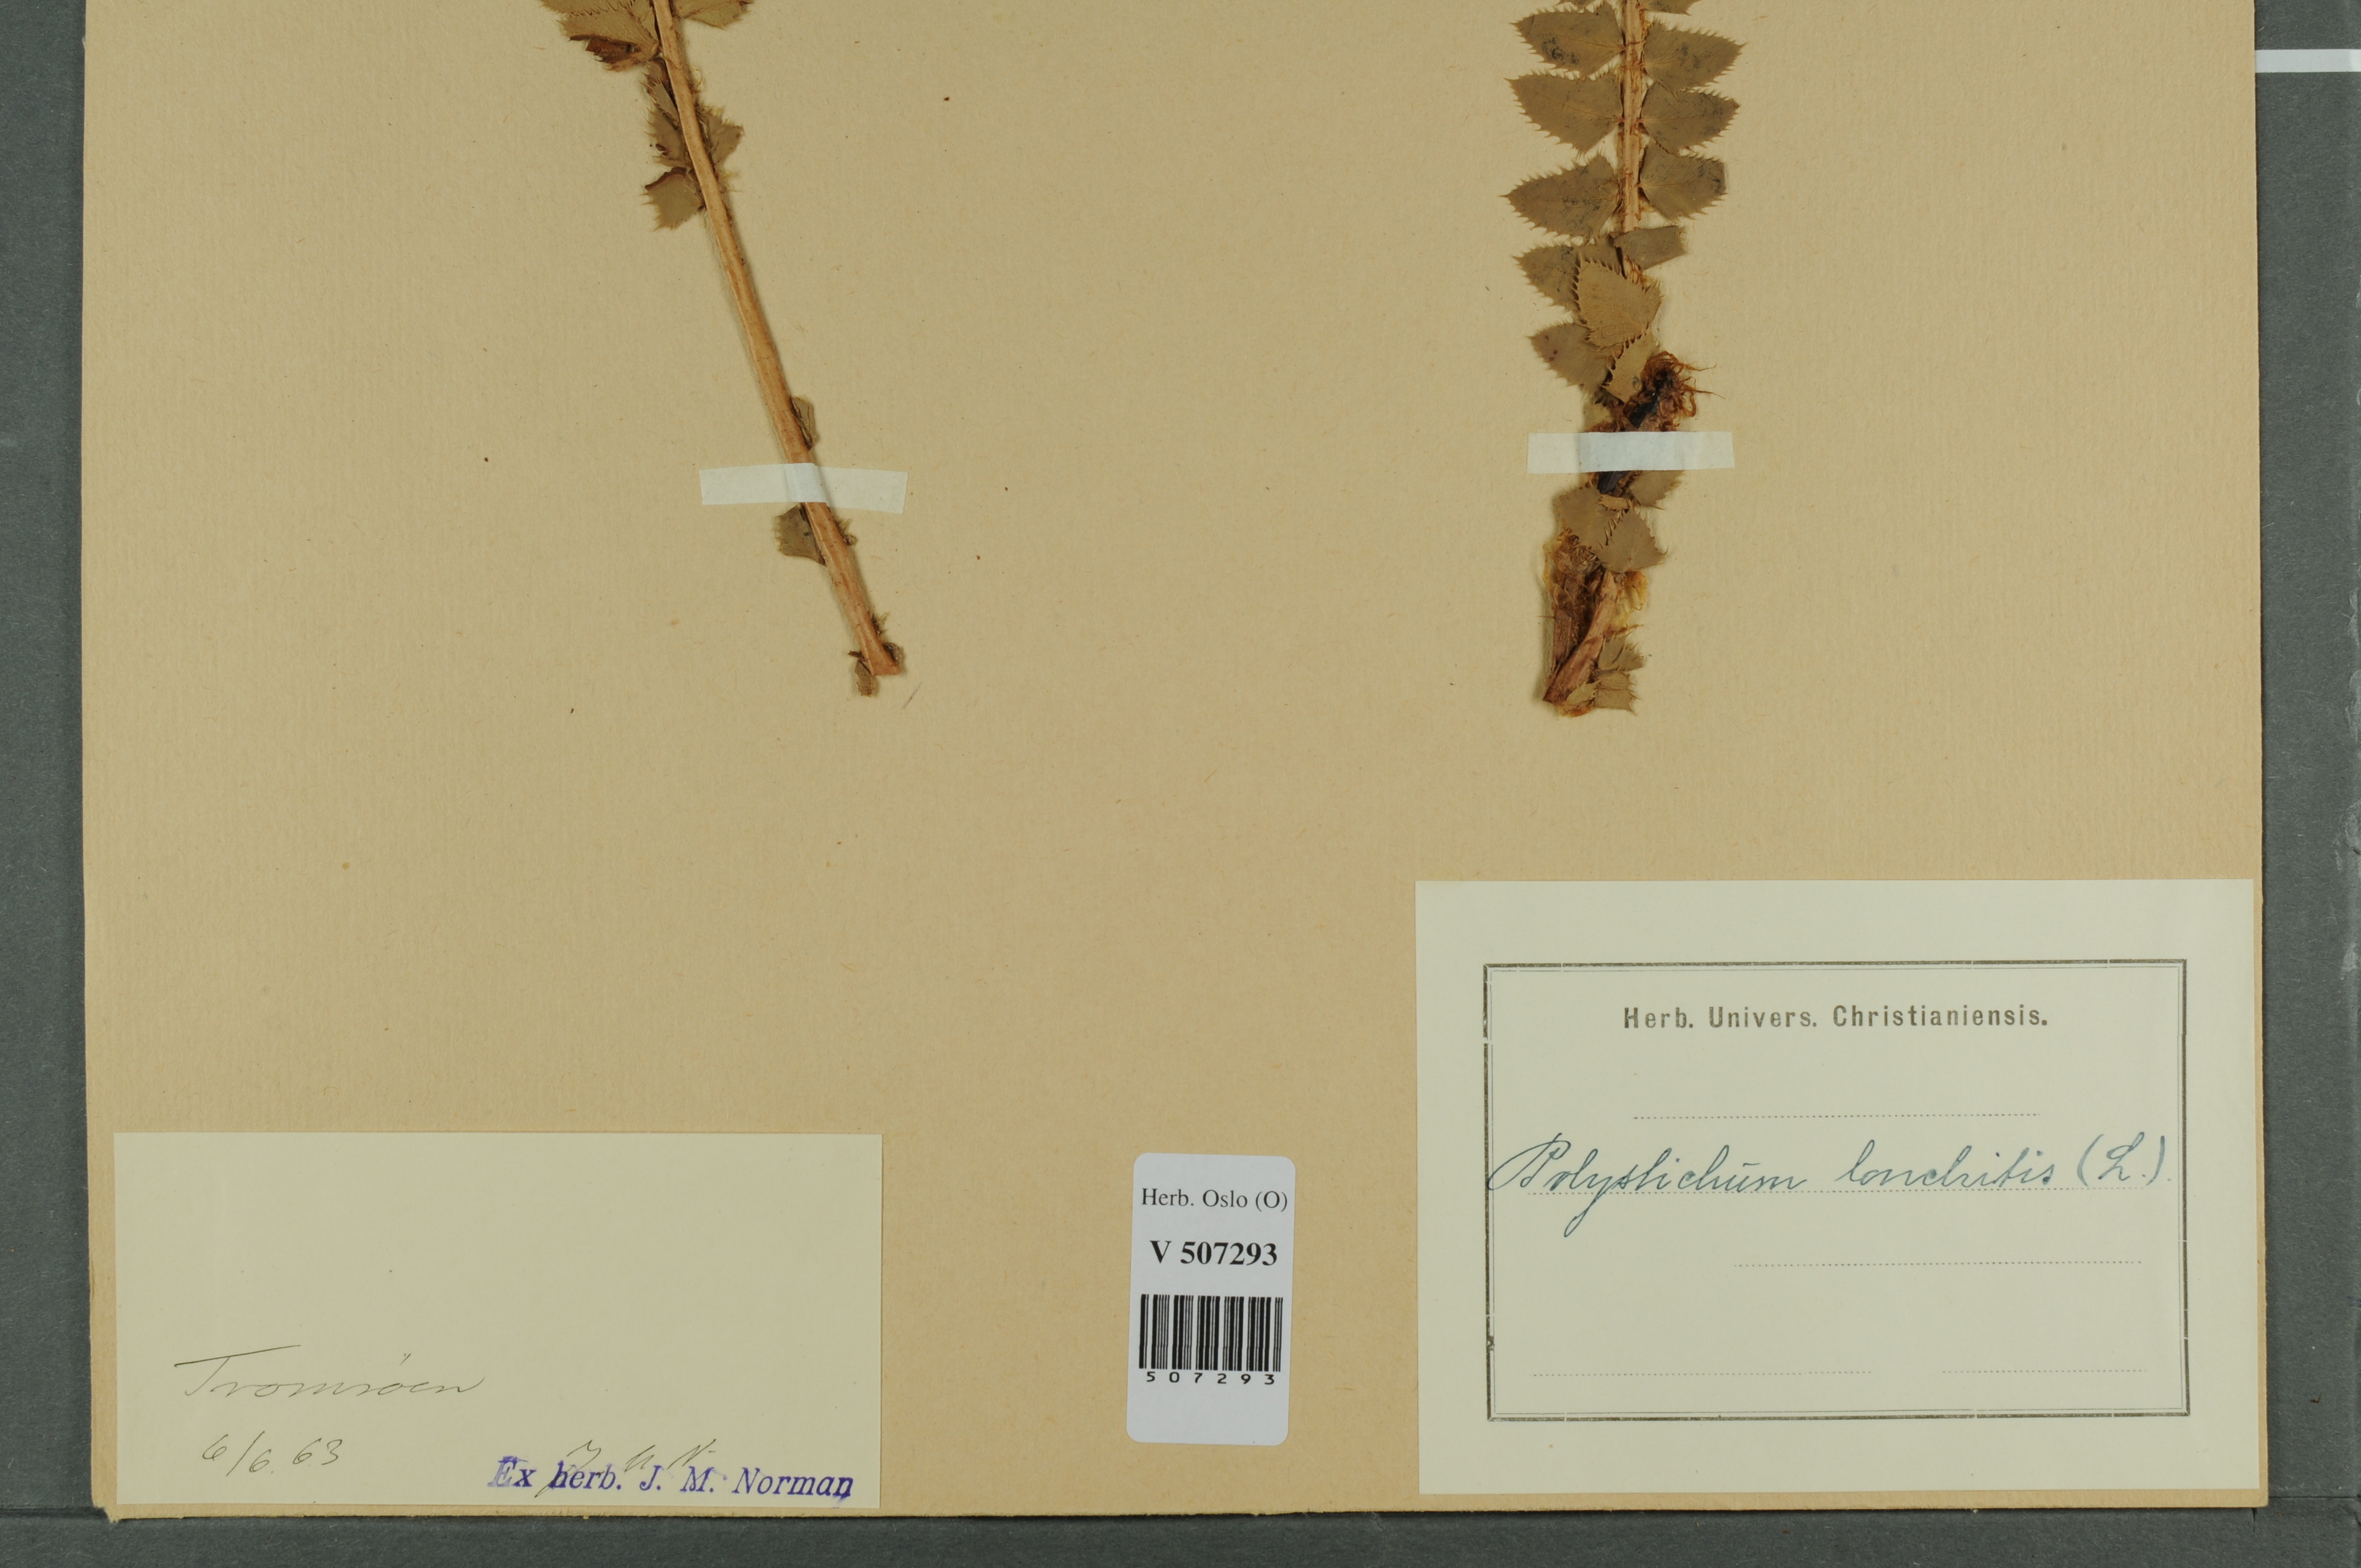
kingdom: Plantae
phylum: Tracheophyta
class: Polypodiopsida
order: Polypodiales
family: Dryopteridaceae
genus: Polystichum
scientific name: Polystichum lonchitis
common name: Holly fern
